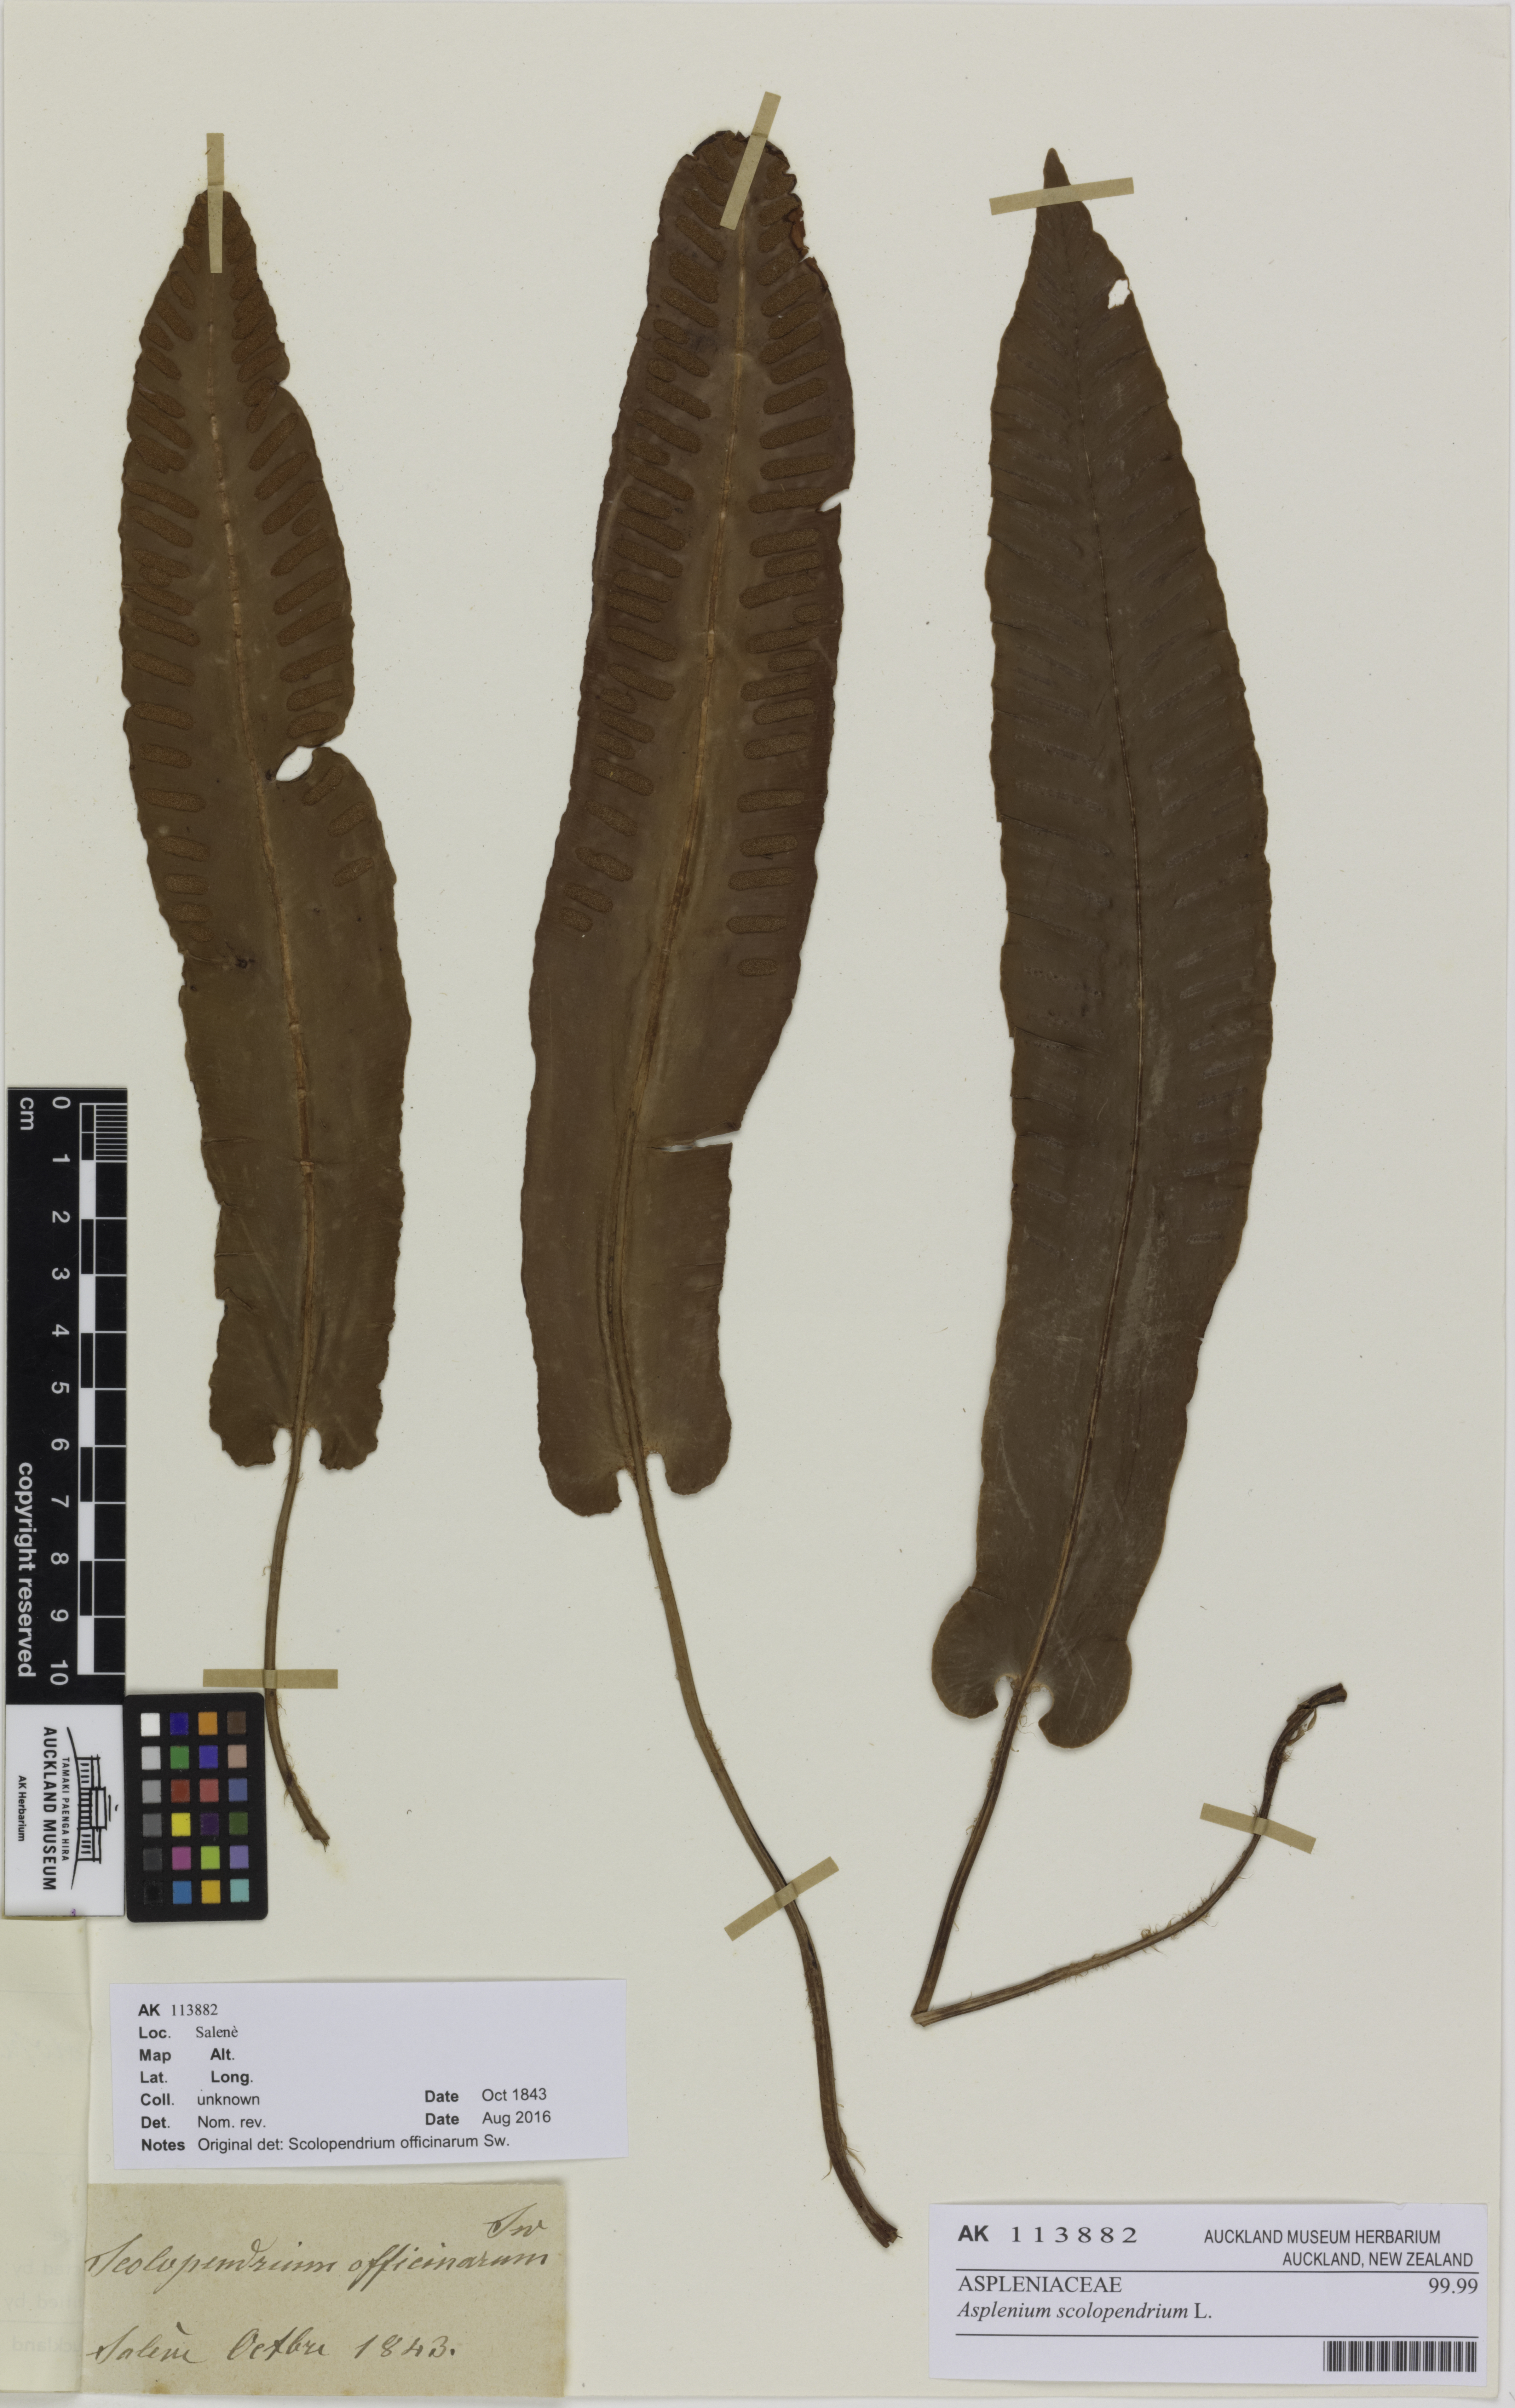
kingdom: Plantae
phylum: Tracheophyta
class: Polypodiopsida
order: Polypodiales
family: Aspleniaceae
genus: Asplenium
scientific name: Asplenium scolopendrium
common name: Hart's-tongue fern
